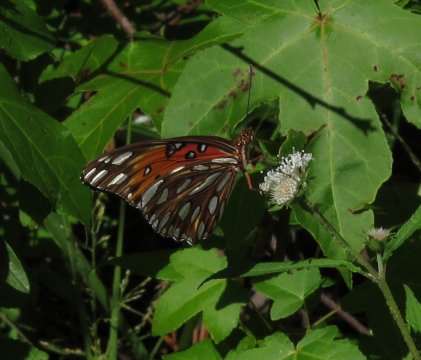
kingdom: Animalia
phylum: Arthropoda
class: Insecta
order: Lepidoptera
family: Nymphalidae
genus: Dione
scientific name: Dione vanillae
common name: Gulf Fritillary
